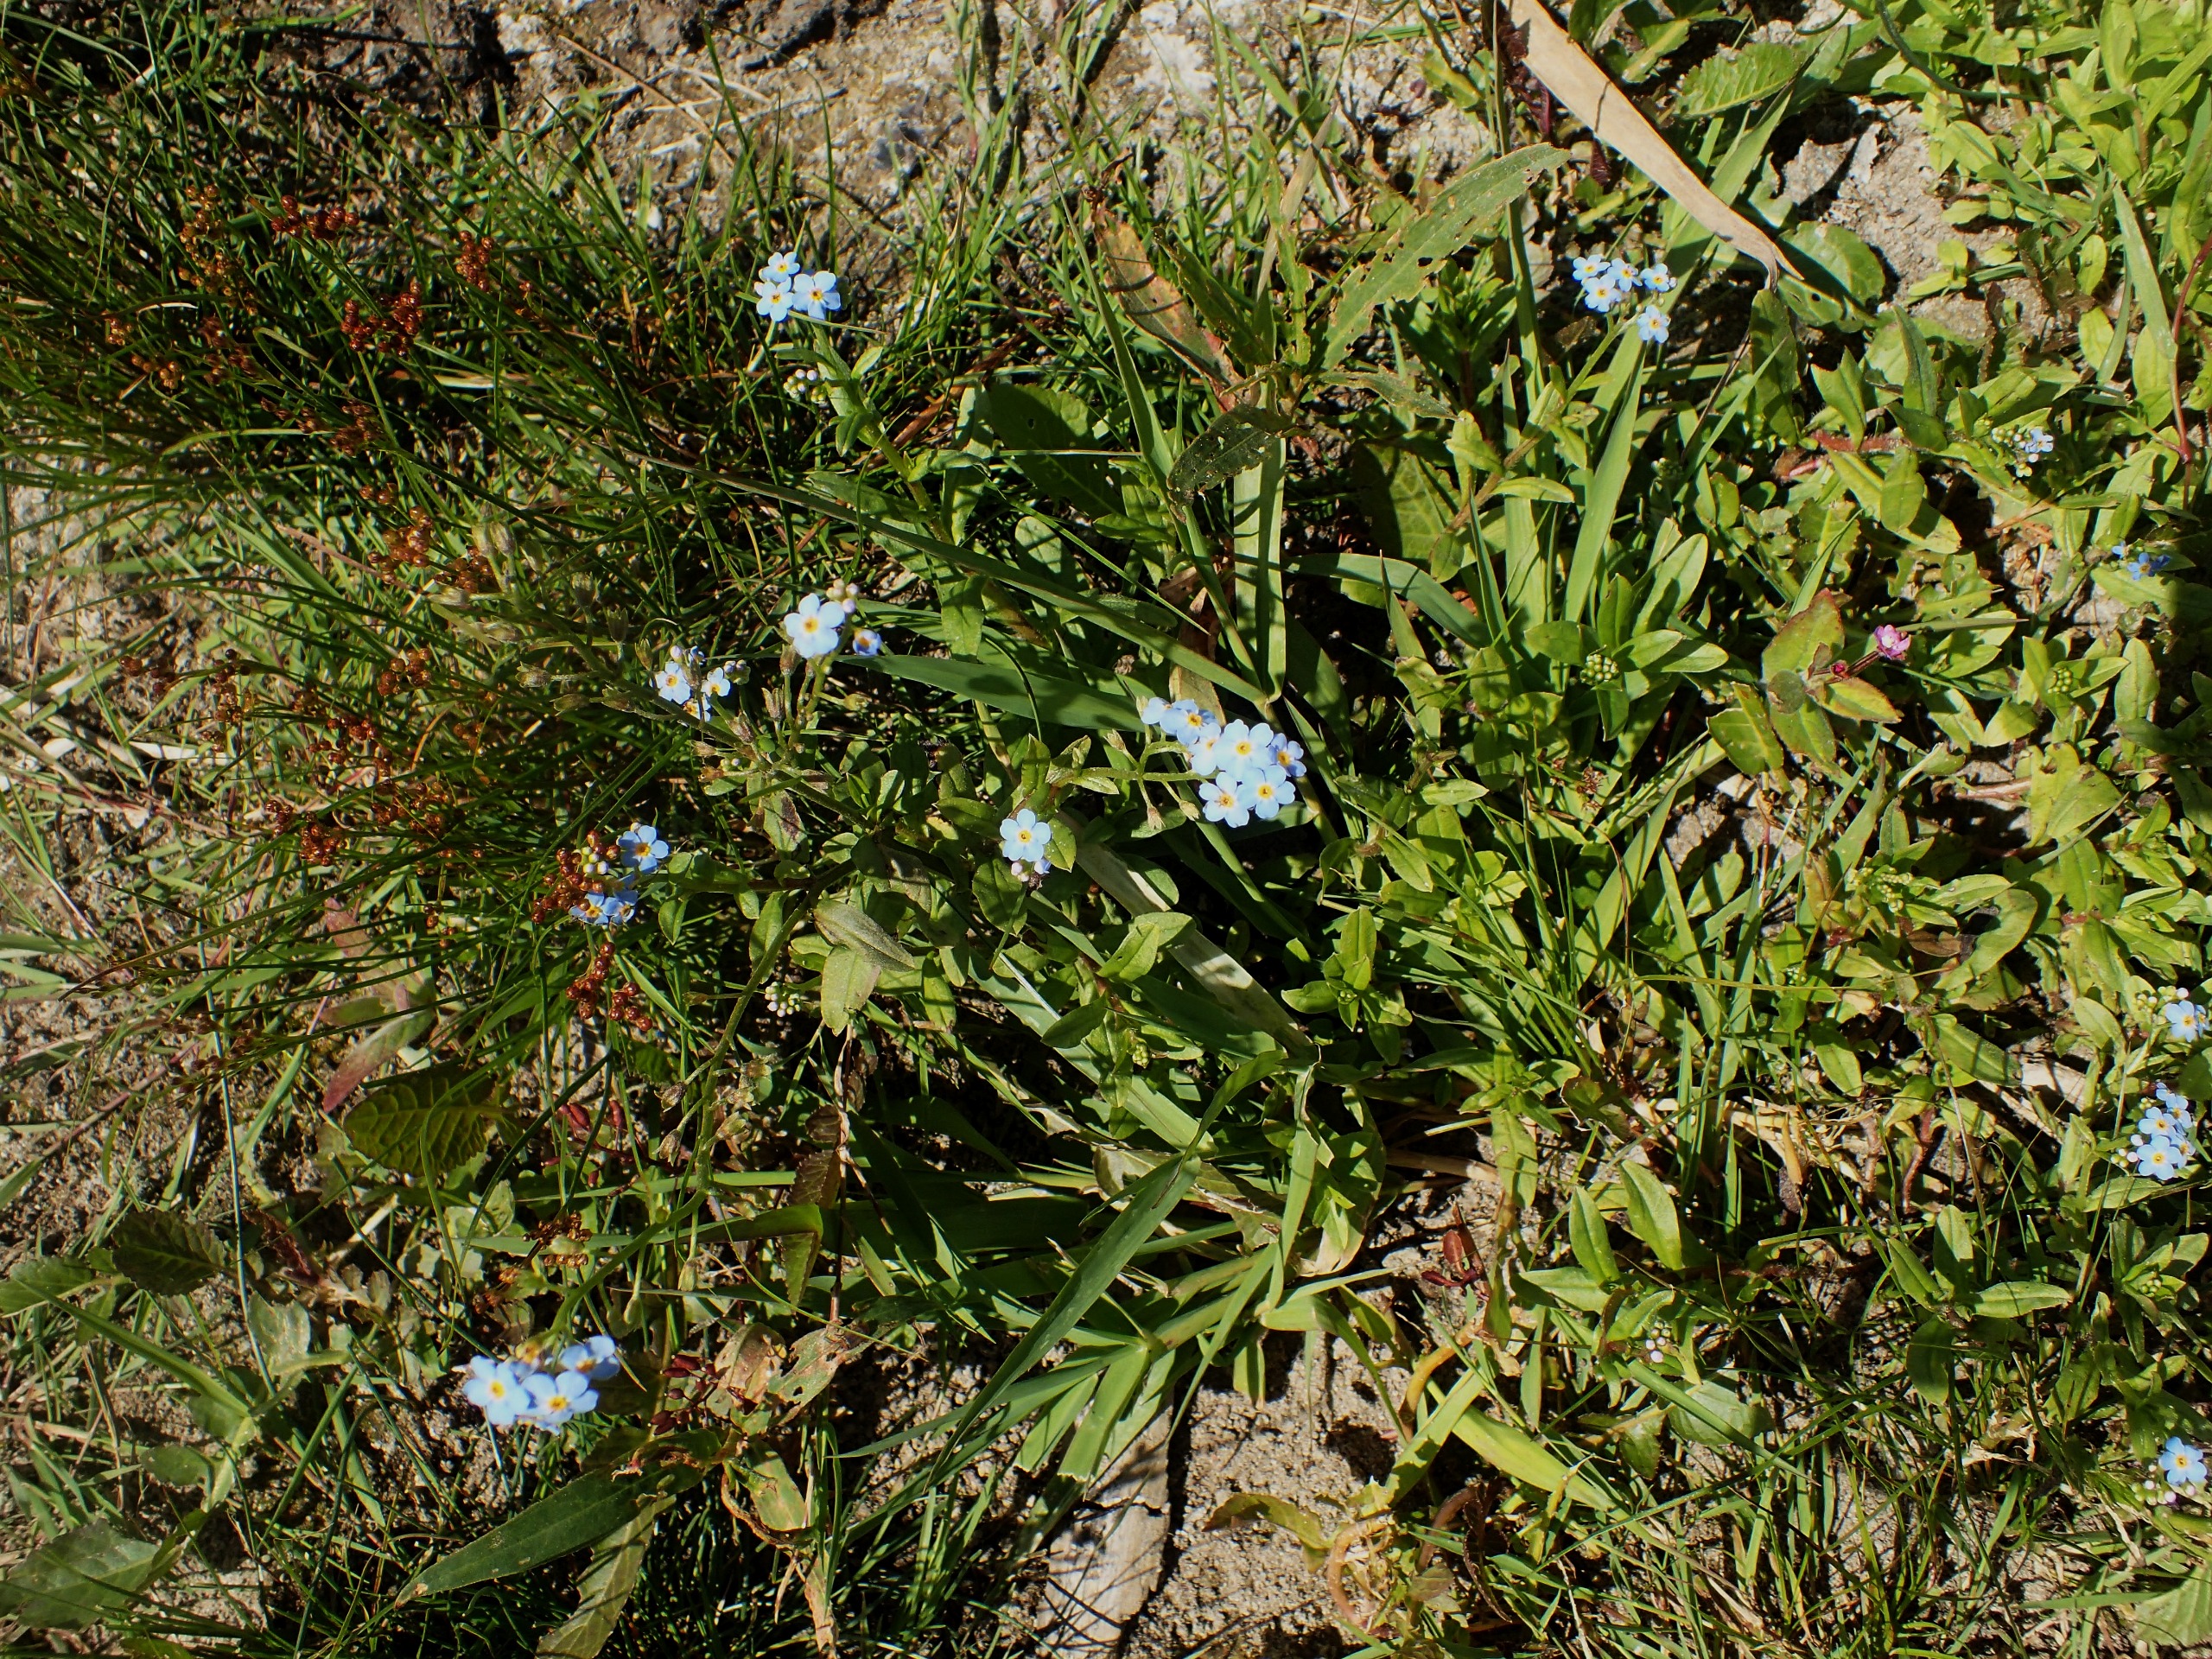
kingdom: Plantae
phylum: Tracheophyta
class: Magnoliopsida
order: Boraginales
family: Boraginaceae
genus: Myosotis
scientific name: Myosotis scorpioides
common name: Eng-forglemmigej
